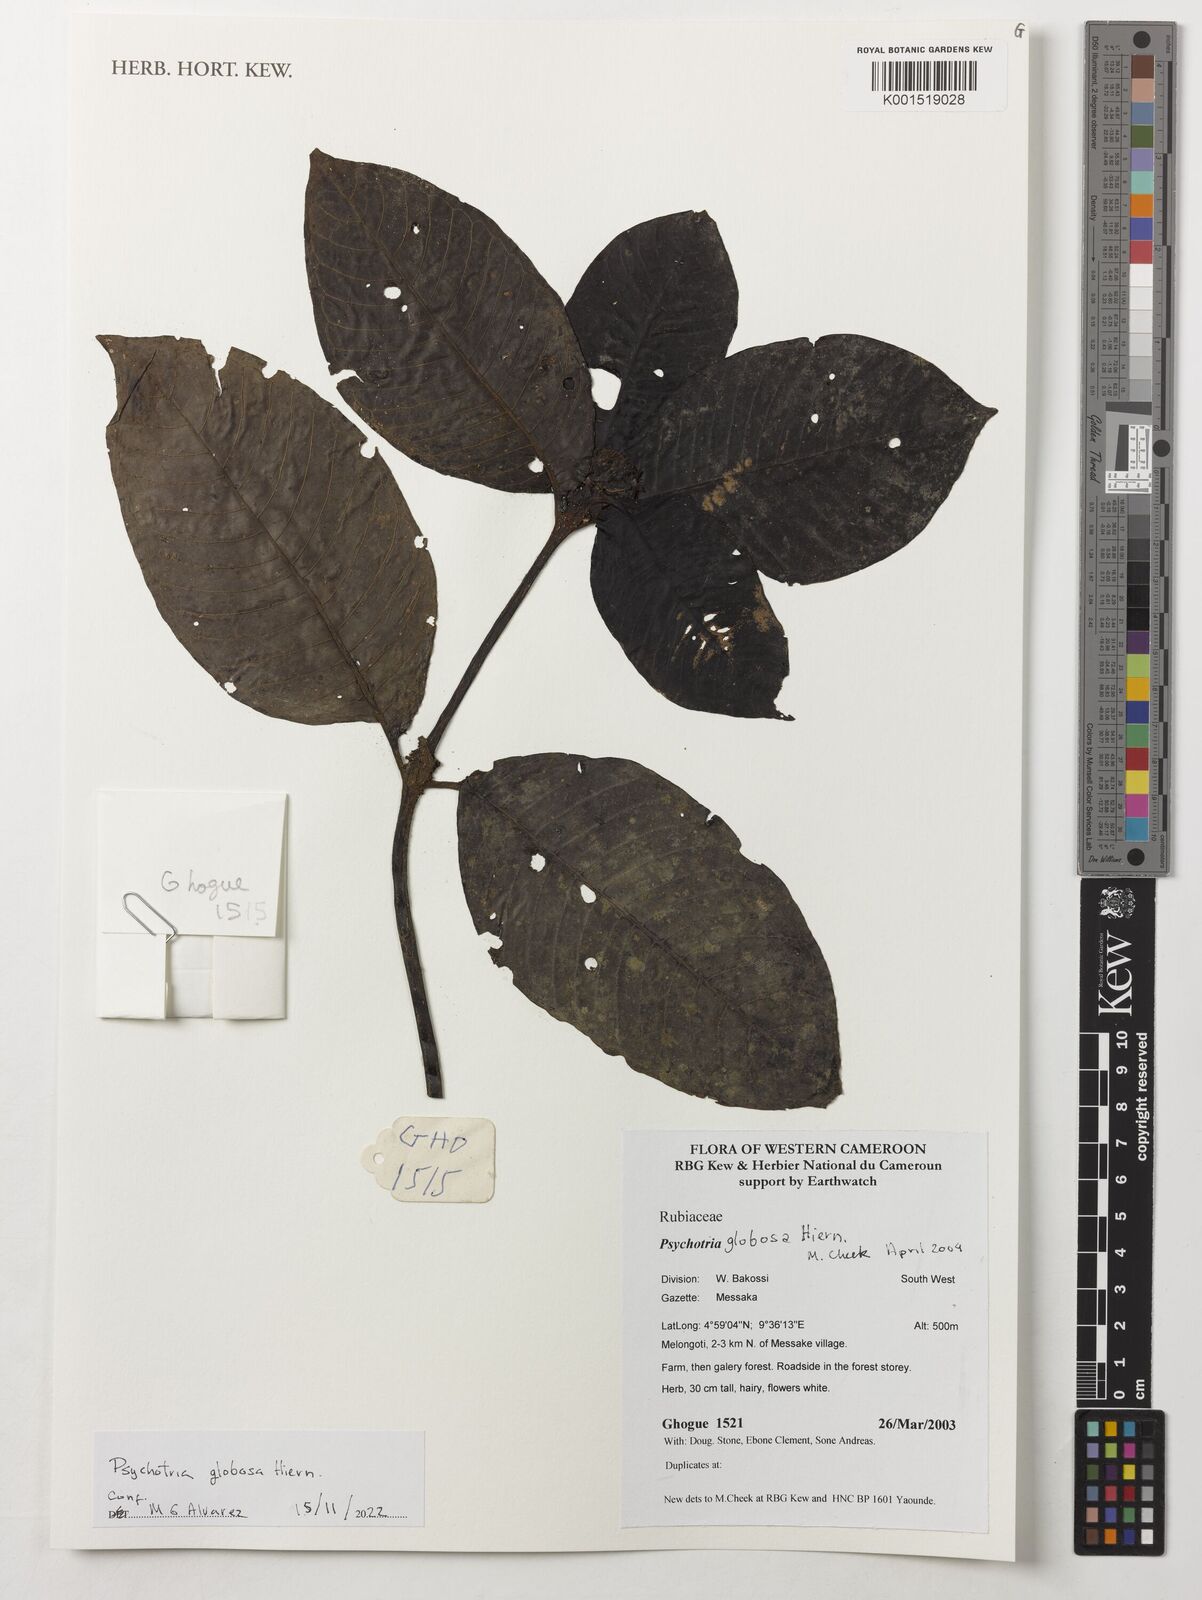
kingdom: Plantae
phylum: Tracheophyta
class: Magnoliopsida
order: Gentianales
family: Rubiaceae
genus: Psychotria
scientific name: Psychotria globosa
